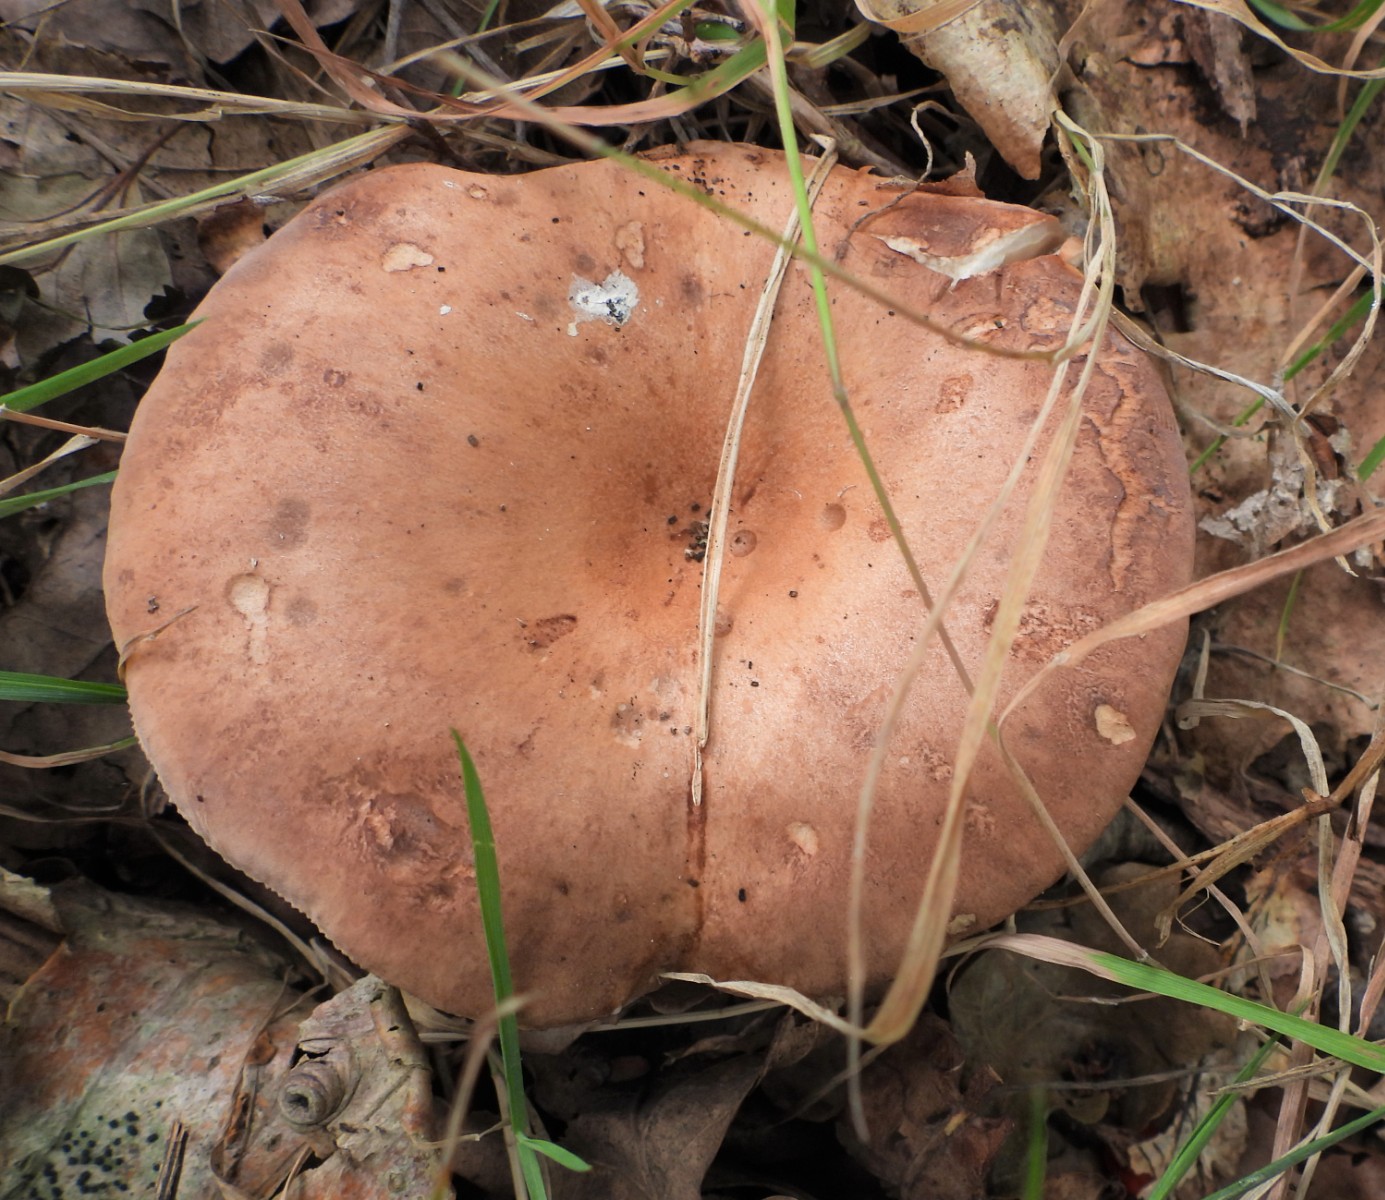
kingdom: Fungi
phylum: Basidiomycota
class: Agaricomycetes
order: Russulales
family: Russulaceae
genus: Lactarius
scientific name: Lactarius quietus
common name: ege-mælkehat
